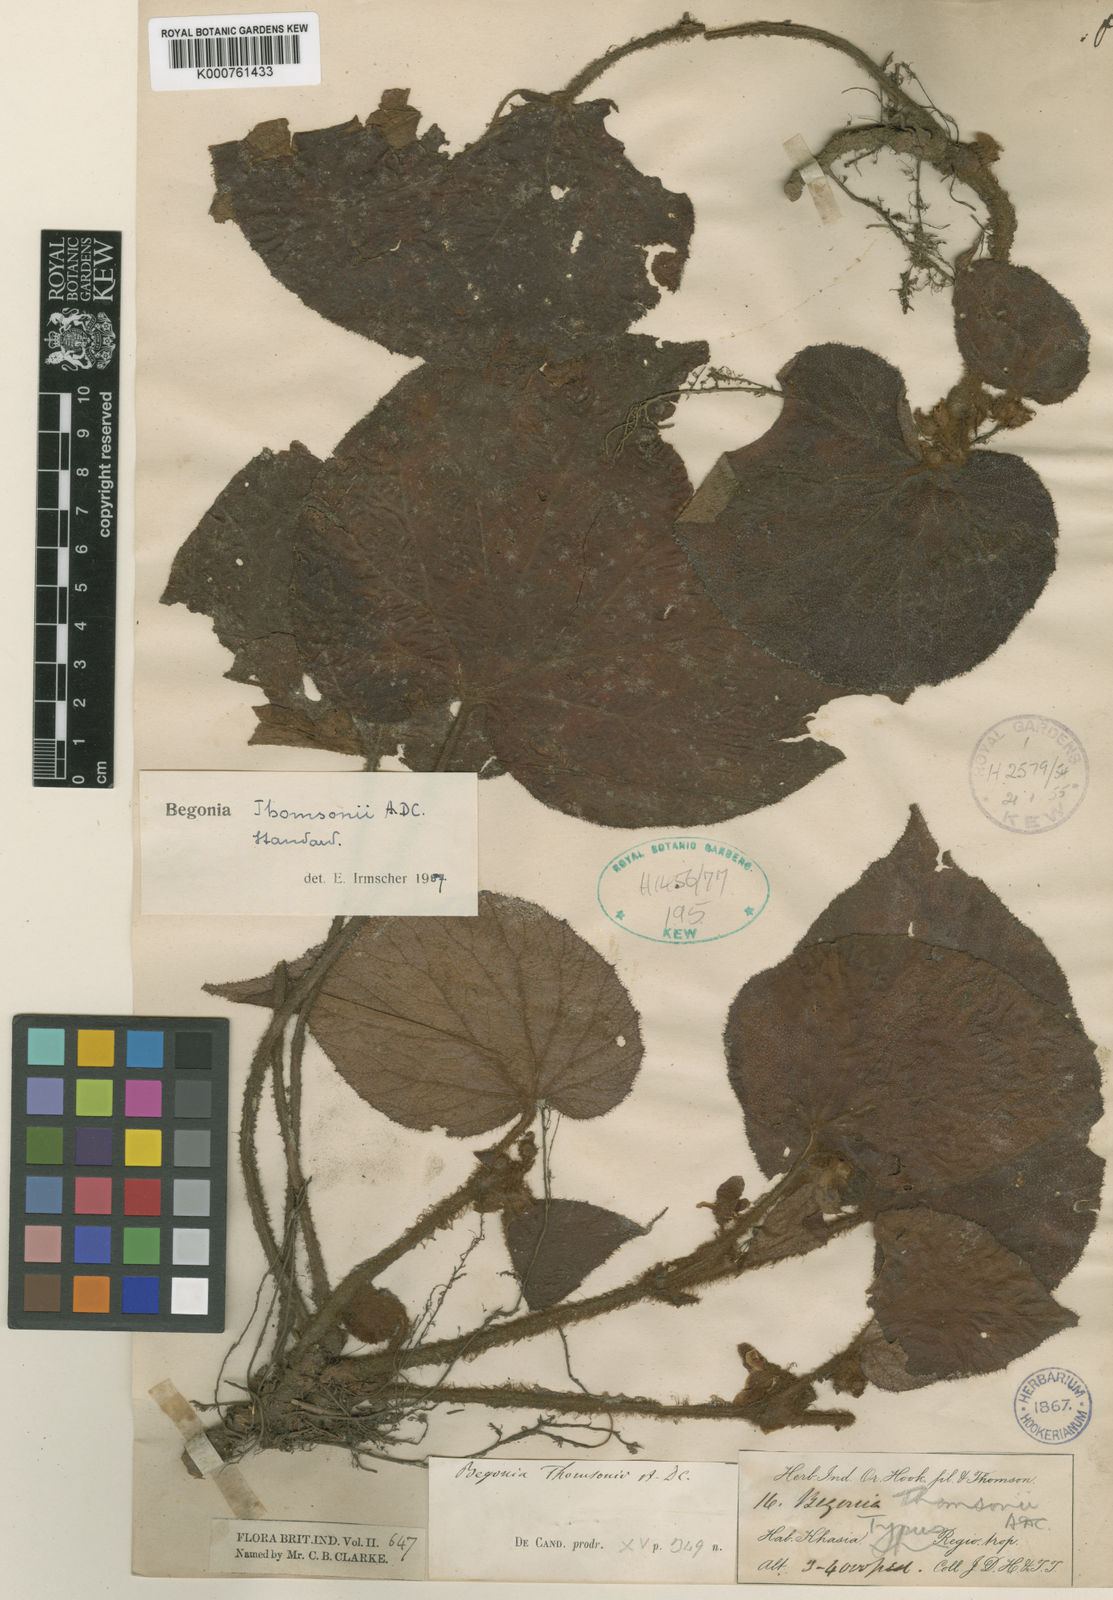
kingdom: Plantae
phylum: Tracheophyta
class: Magnoliopsida
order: Cucurbitales
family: Begoniaceae
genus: Begonia
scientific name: Begonia thomsonii
